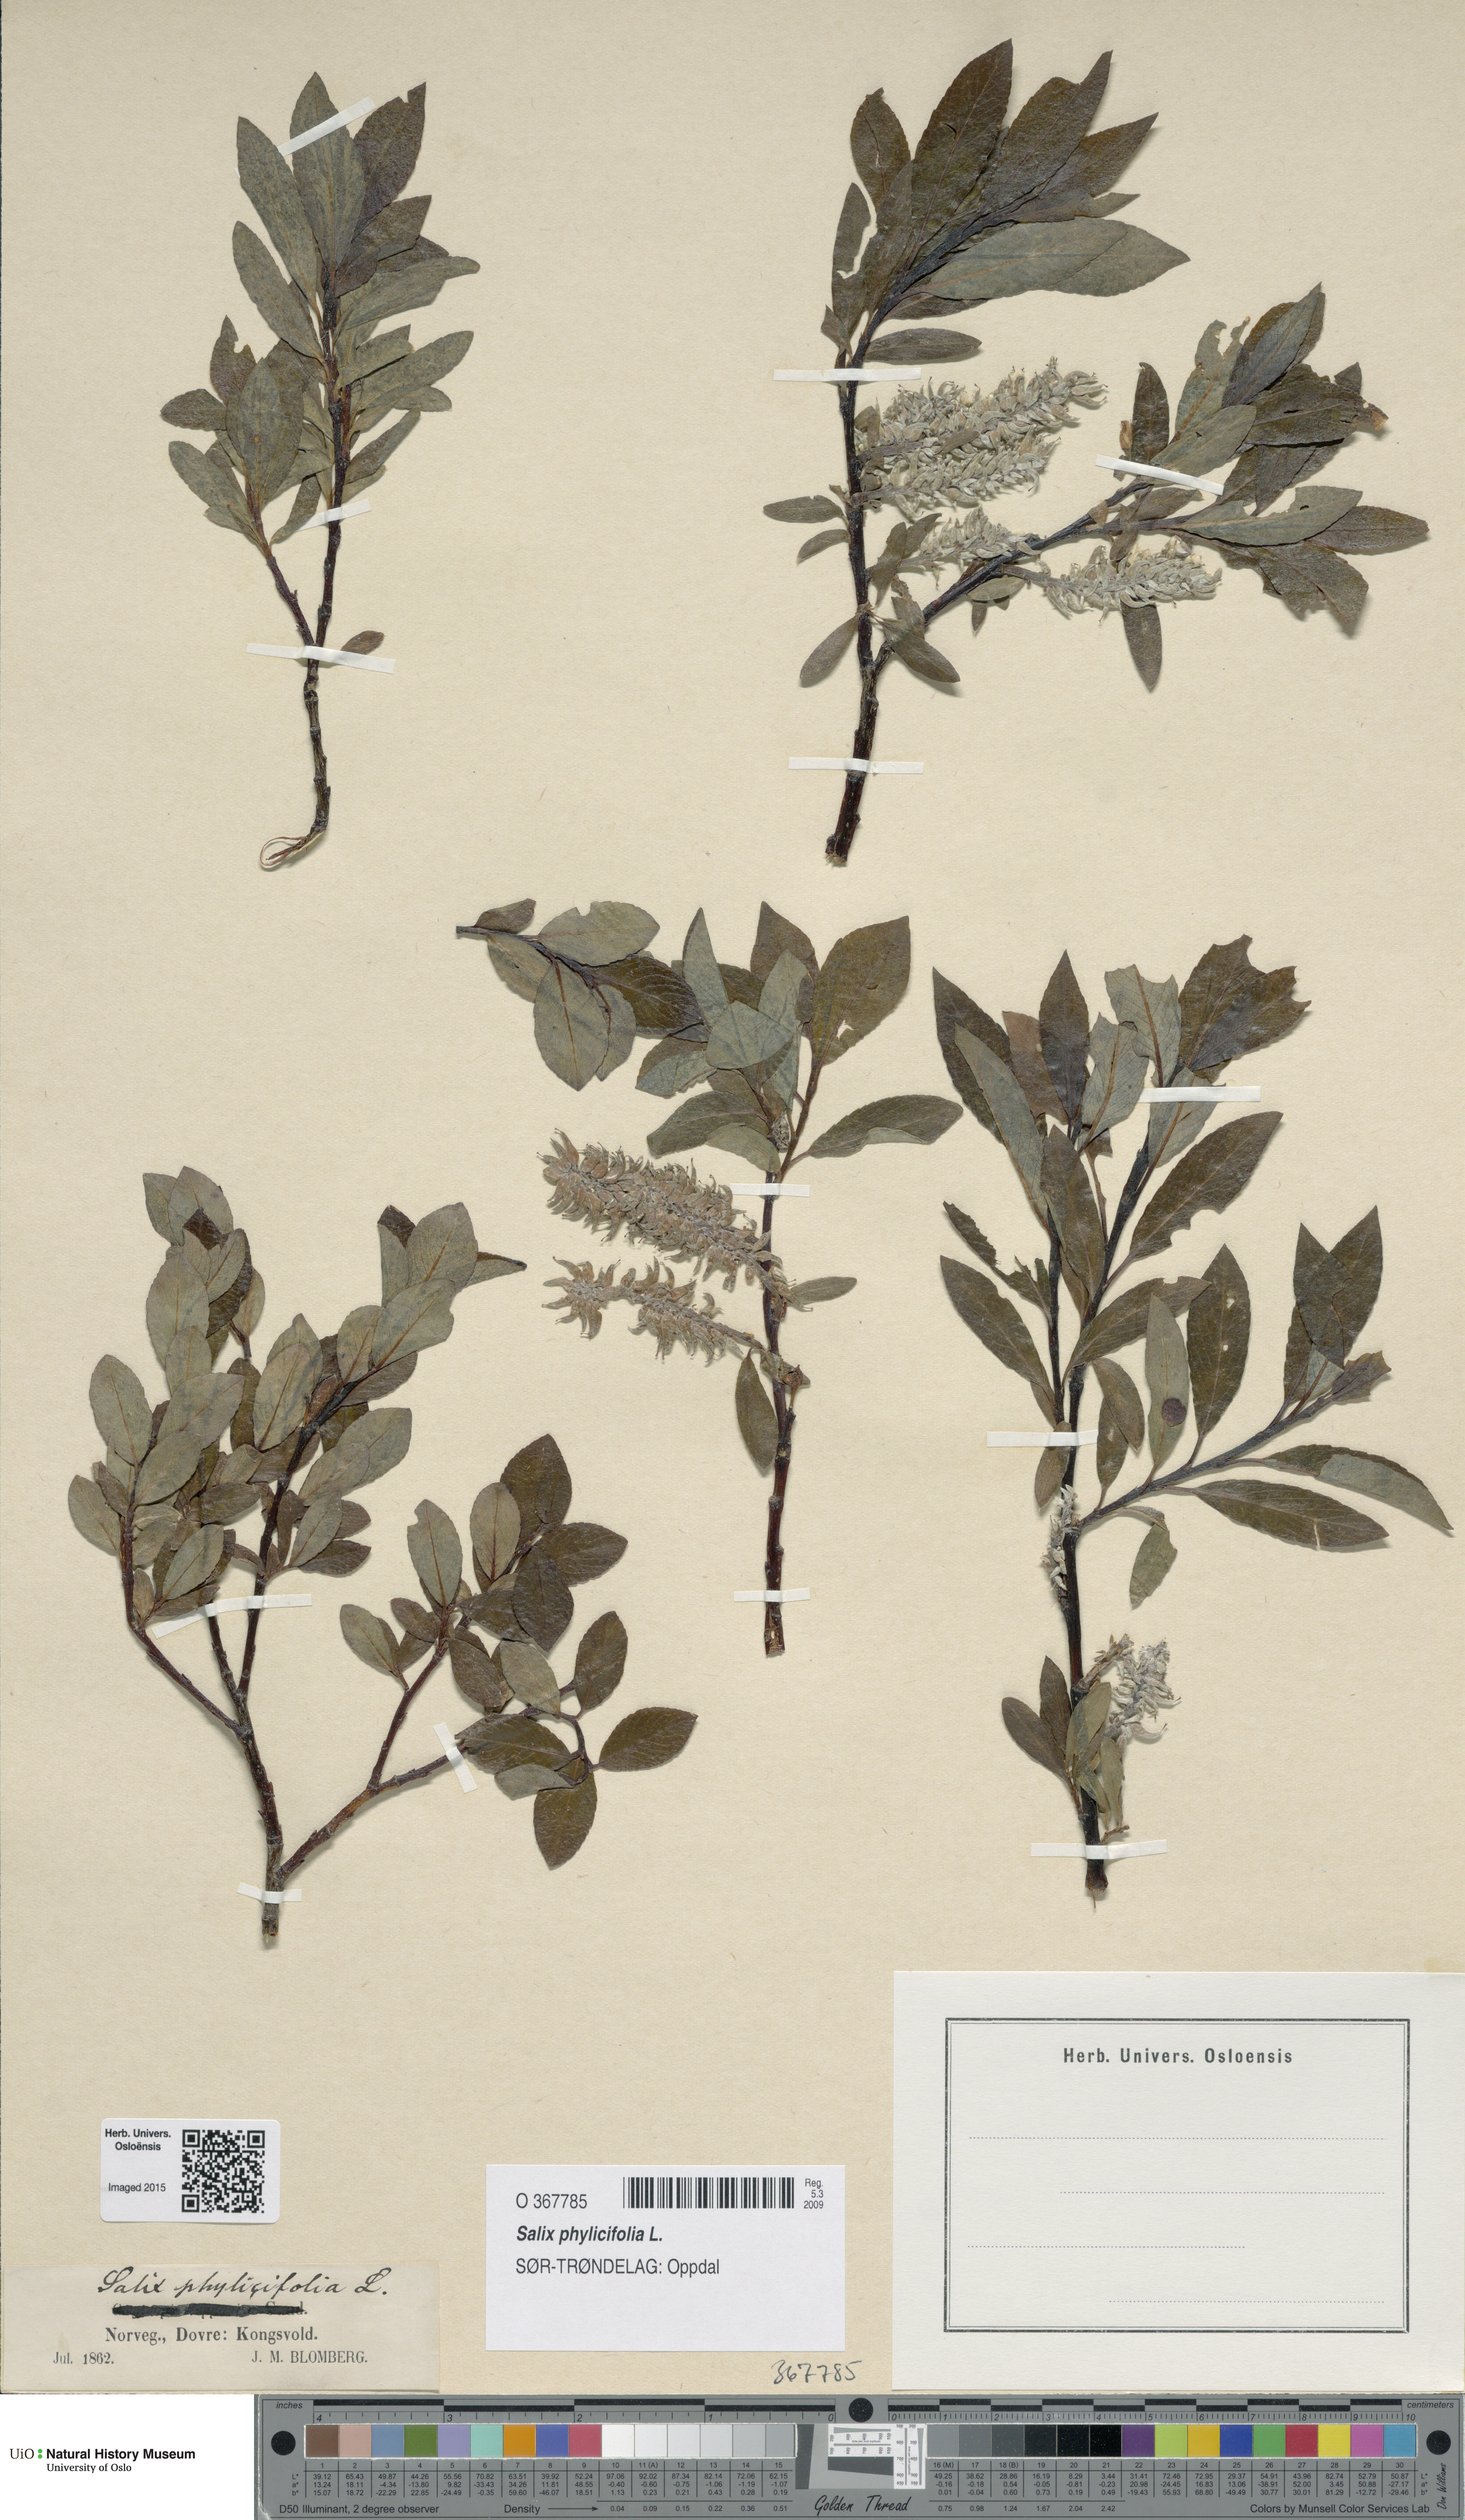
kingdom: Plantae
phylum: Tracheophyta
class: Magnoliopsida
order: Malpighiales
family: Salicaceae
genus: Salix
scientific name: Salix phylicifolia
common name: Tea-leaved willow
